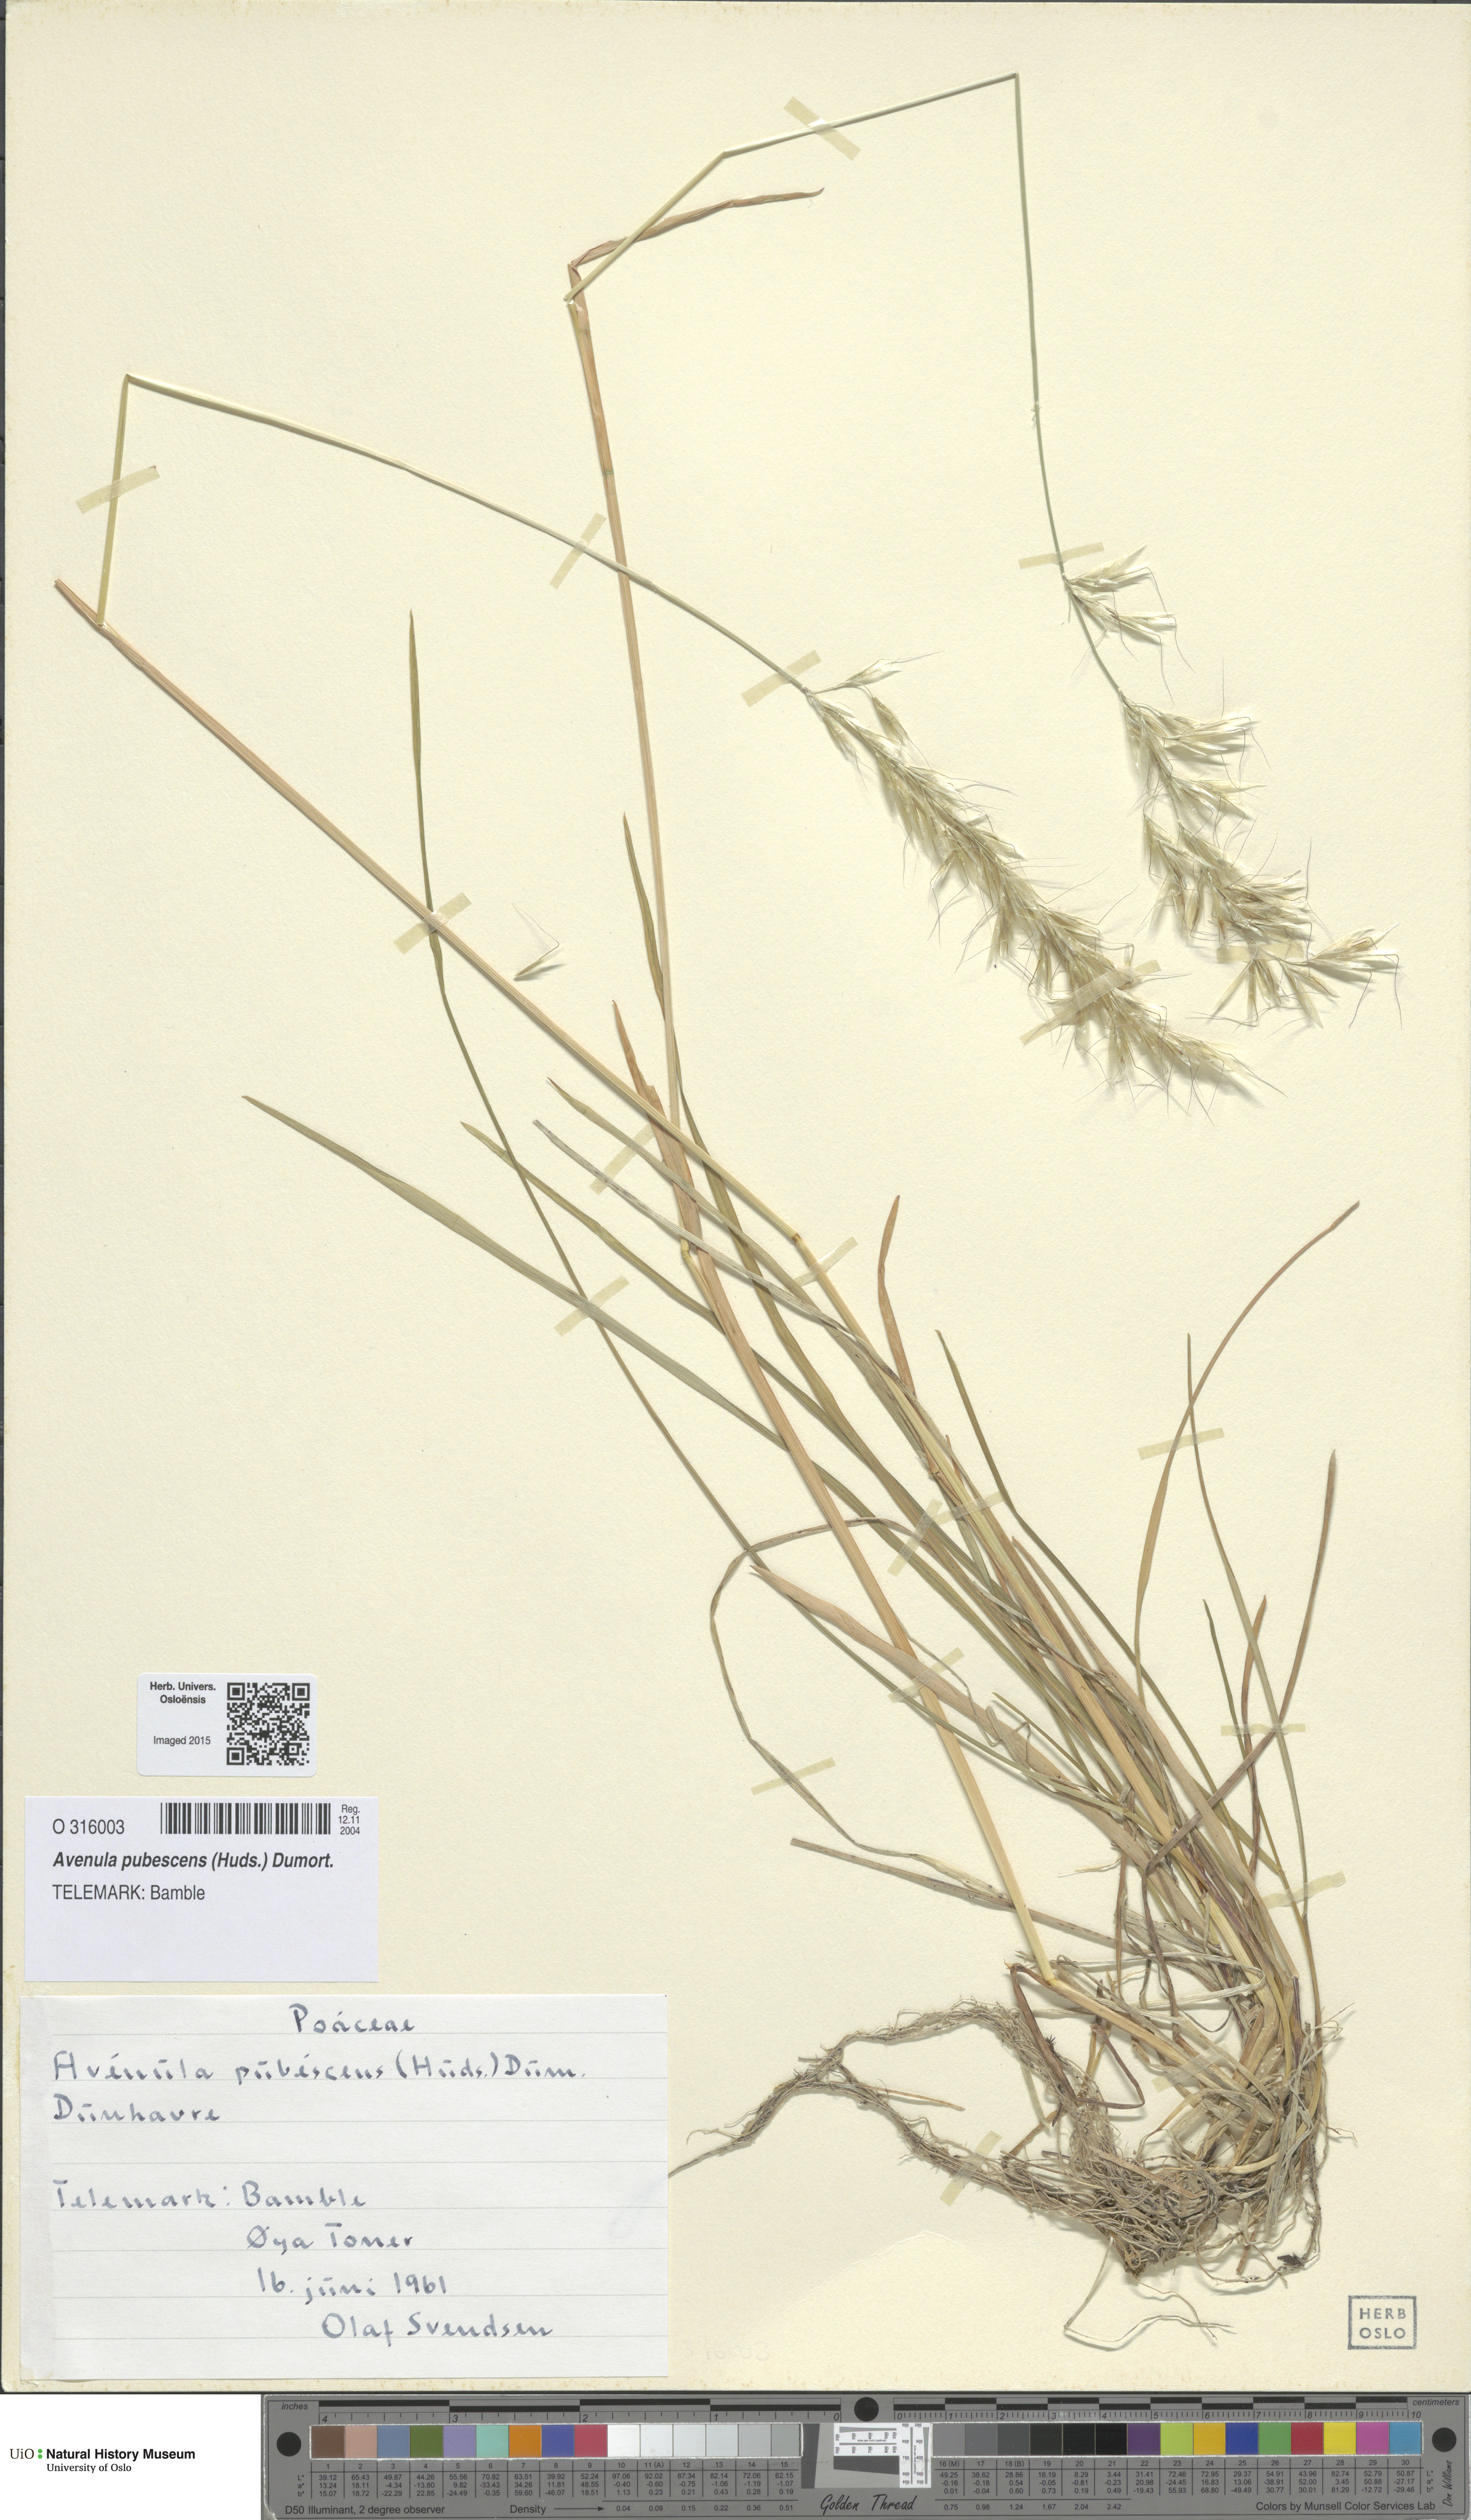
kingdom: Plantae
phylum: Tracheophyta
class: Liliopsida
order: Poales
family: Poaceae
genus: Avenula
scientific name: Avenula pubescens
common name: Downy alpine oatgrass
